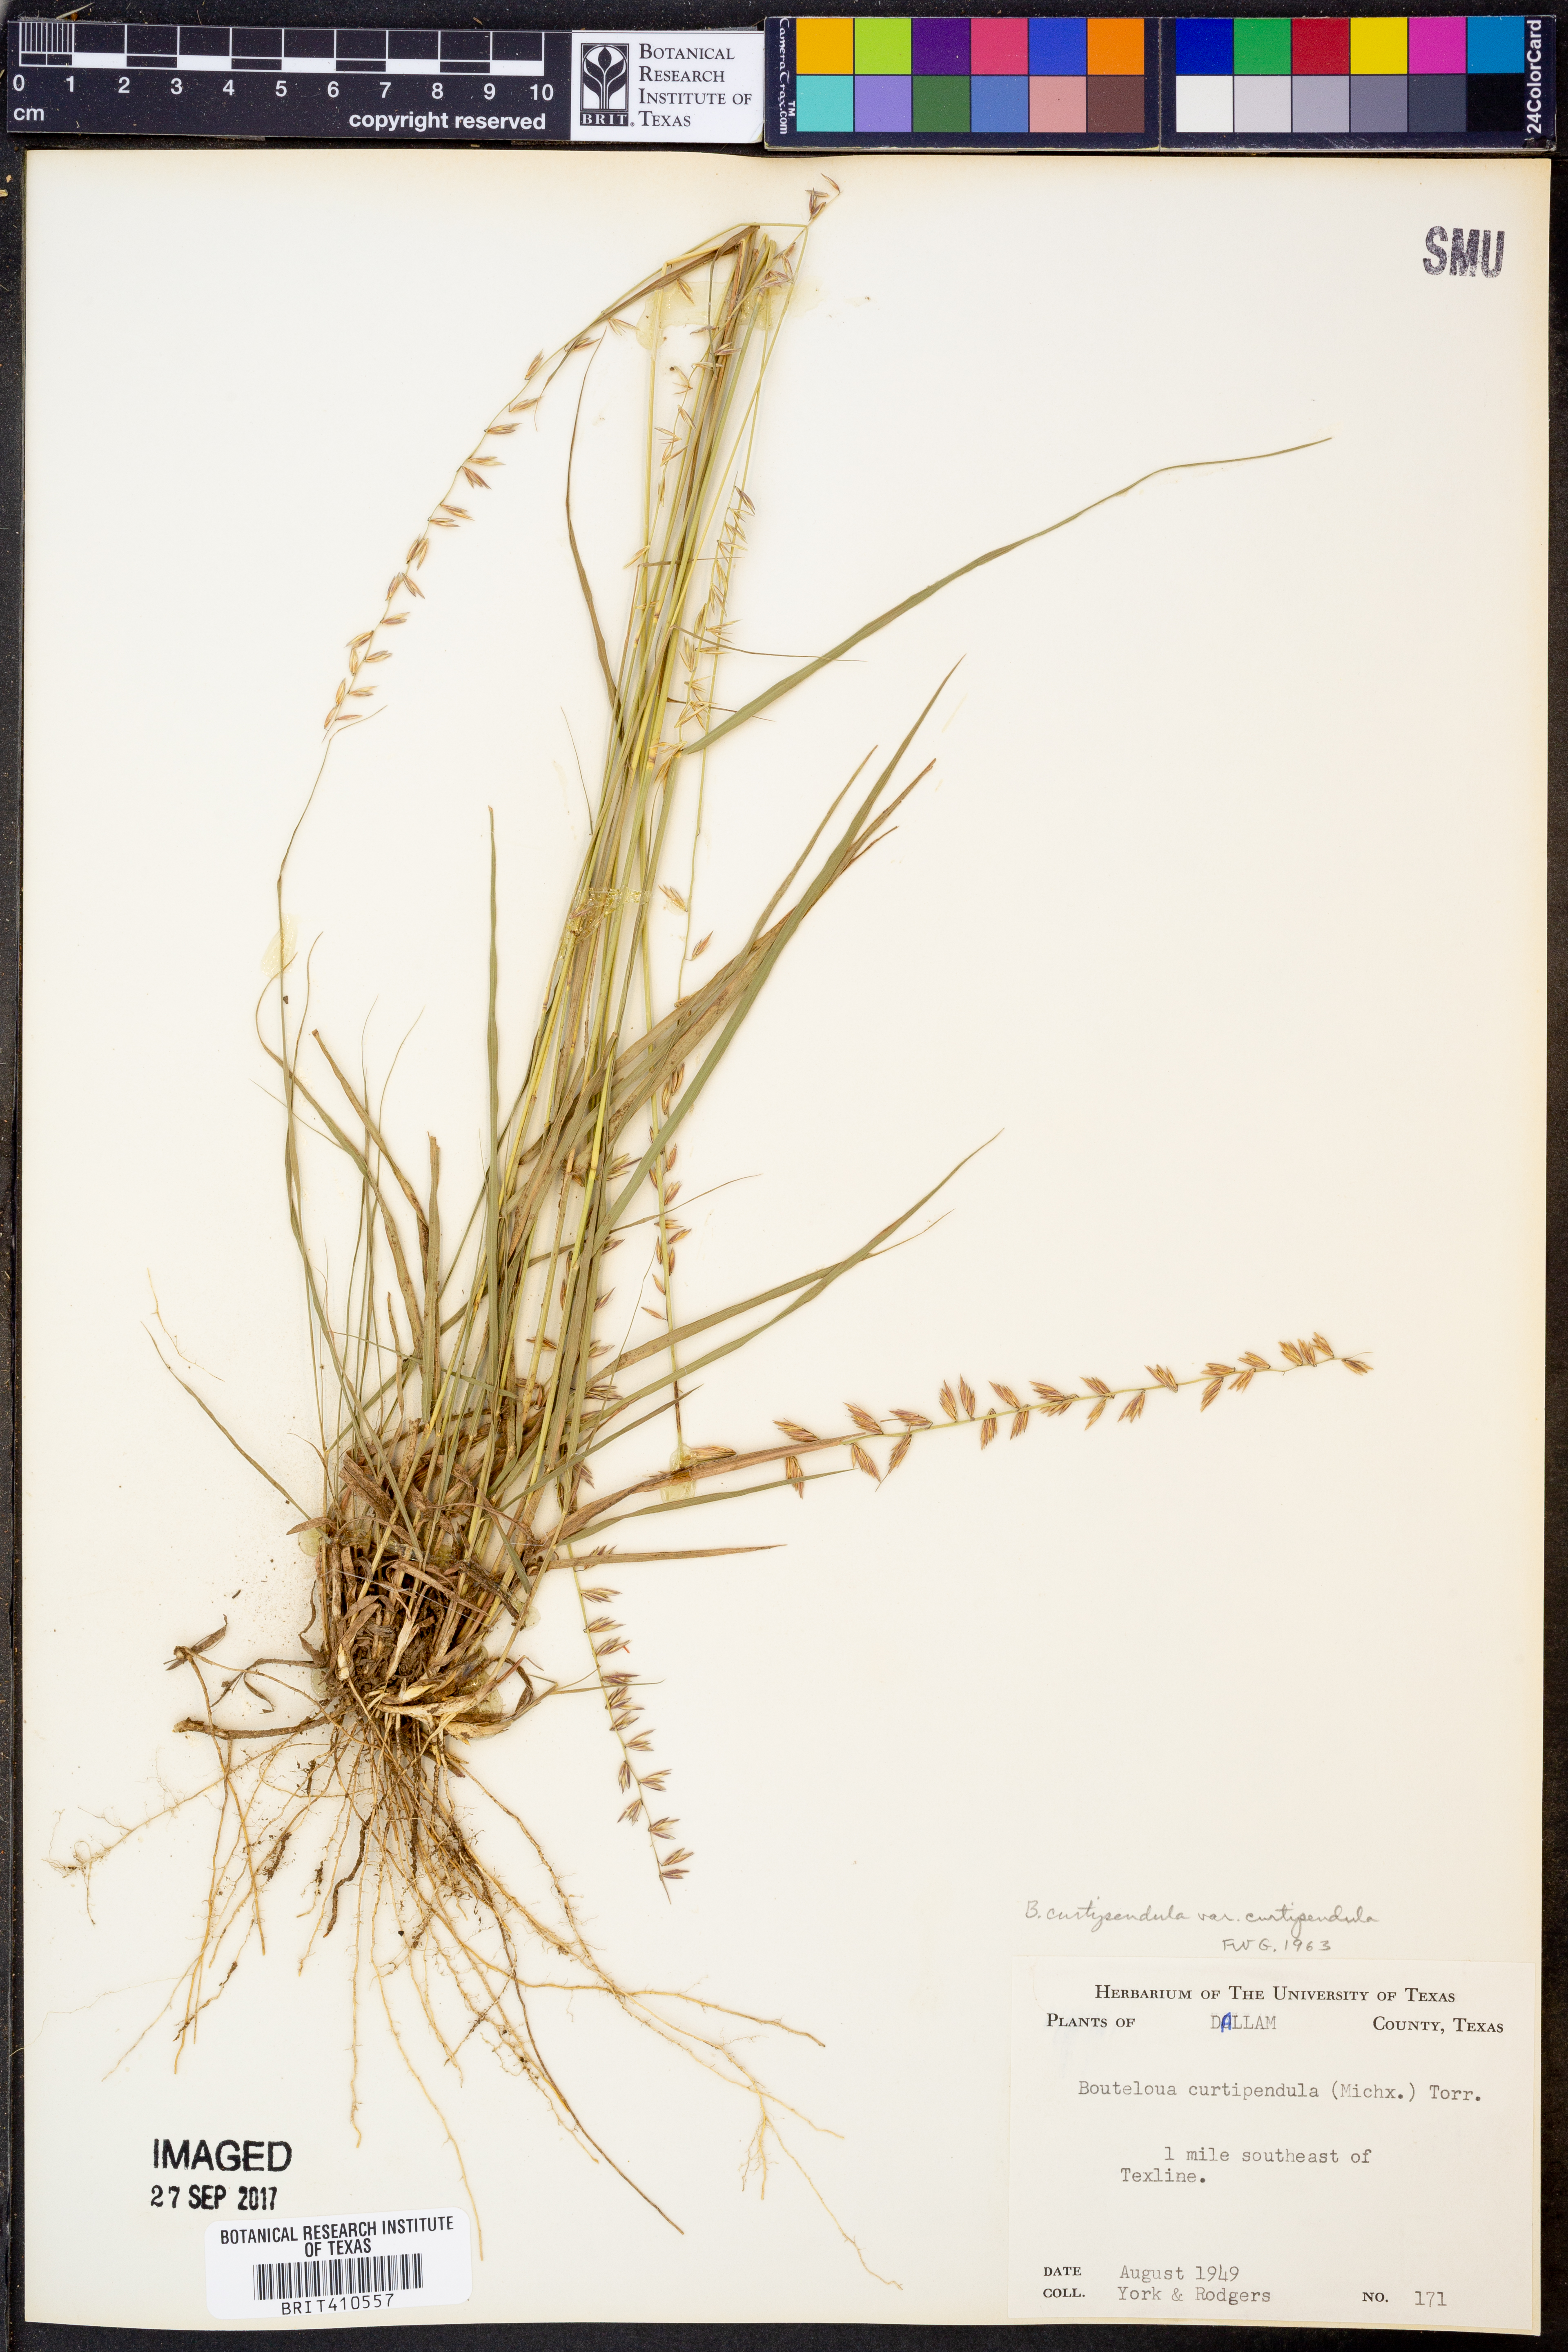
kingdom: Plantae
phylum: Tracheophyta
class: Liliopsida
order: Poales
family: Poaceae
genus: Bouteloua
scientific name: Bouteloua curtipendula
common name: Side-oats grama
